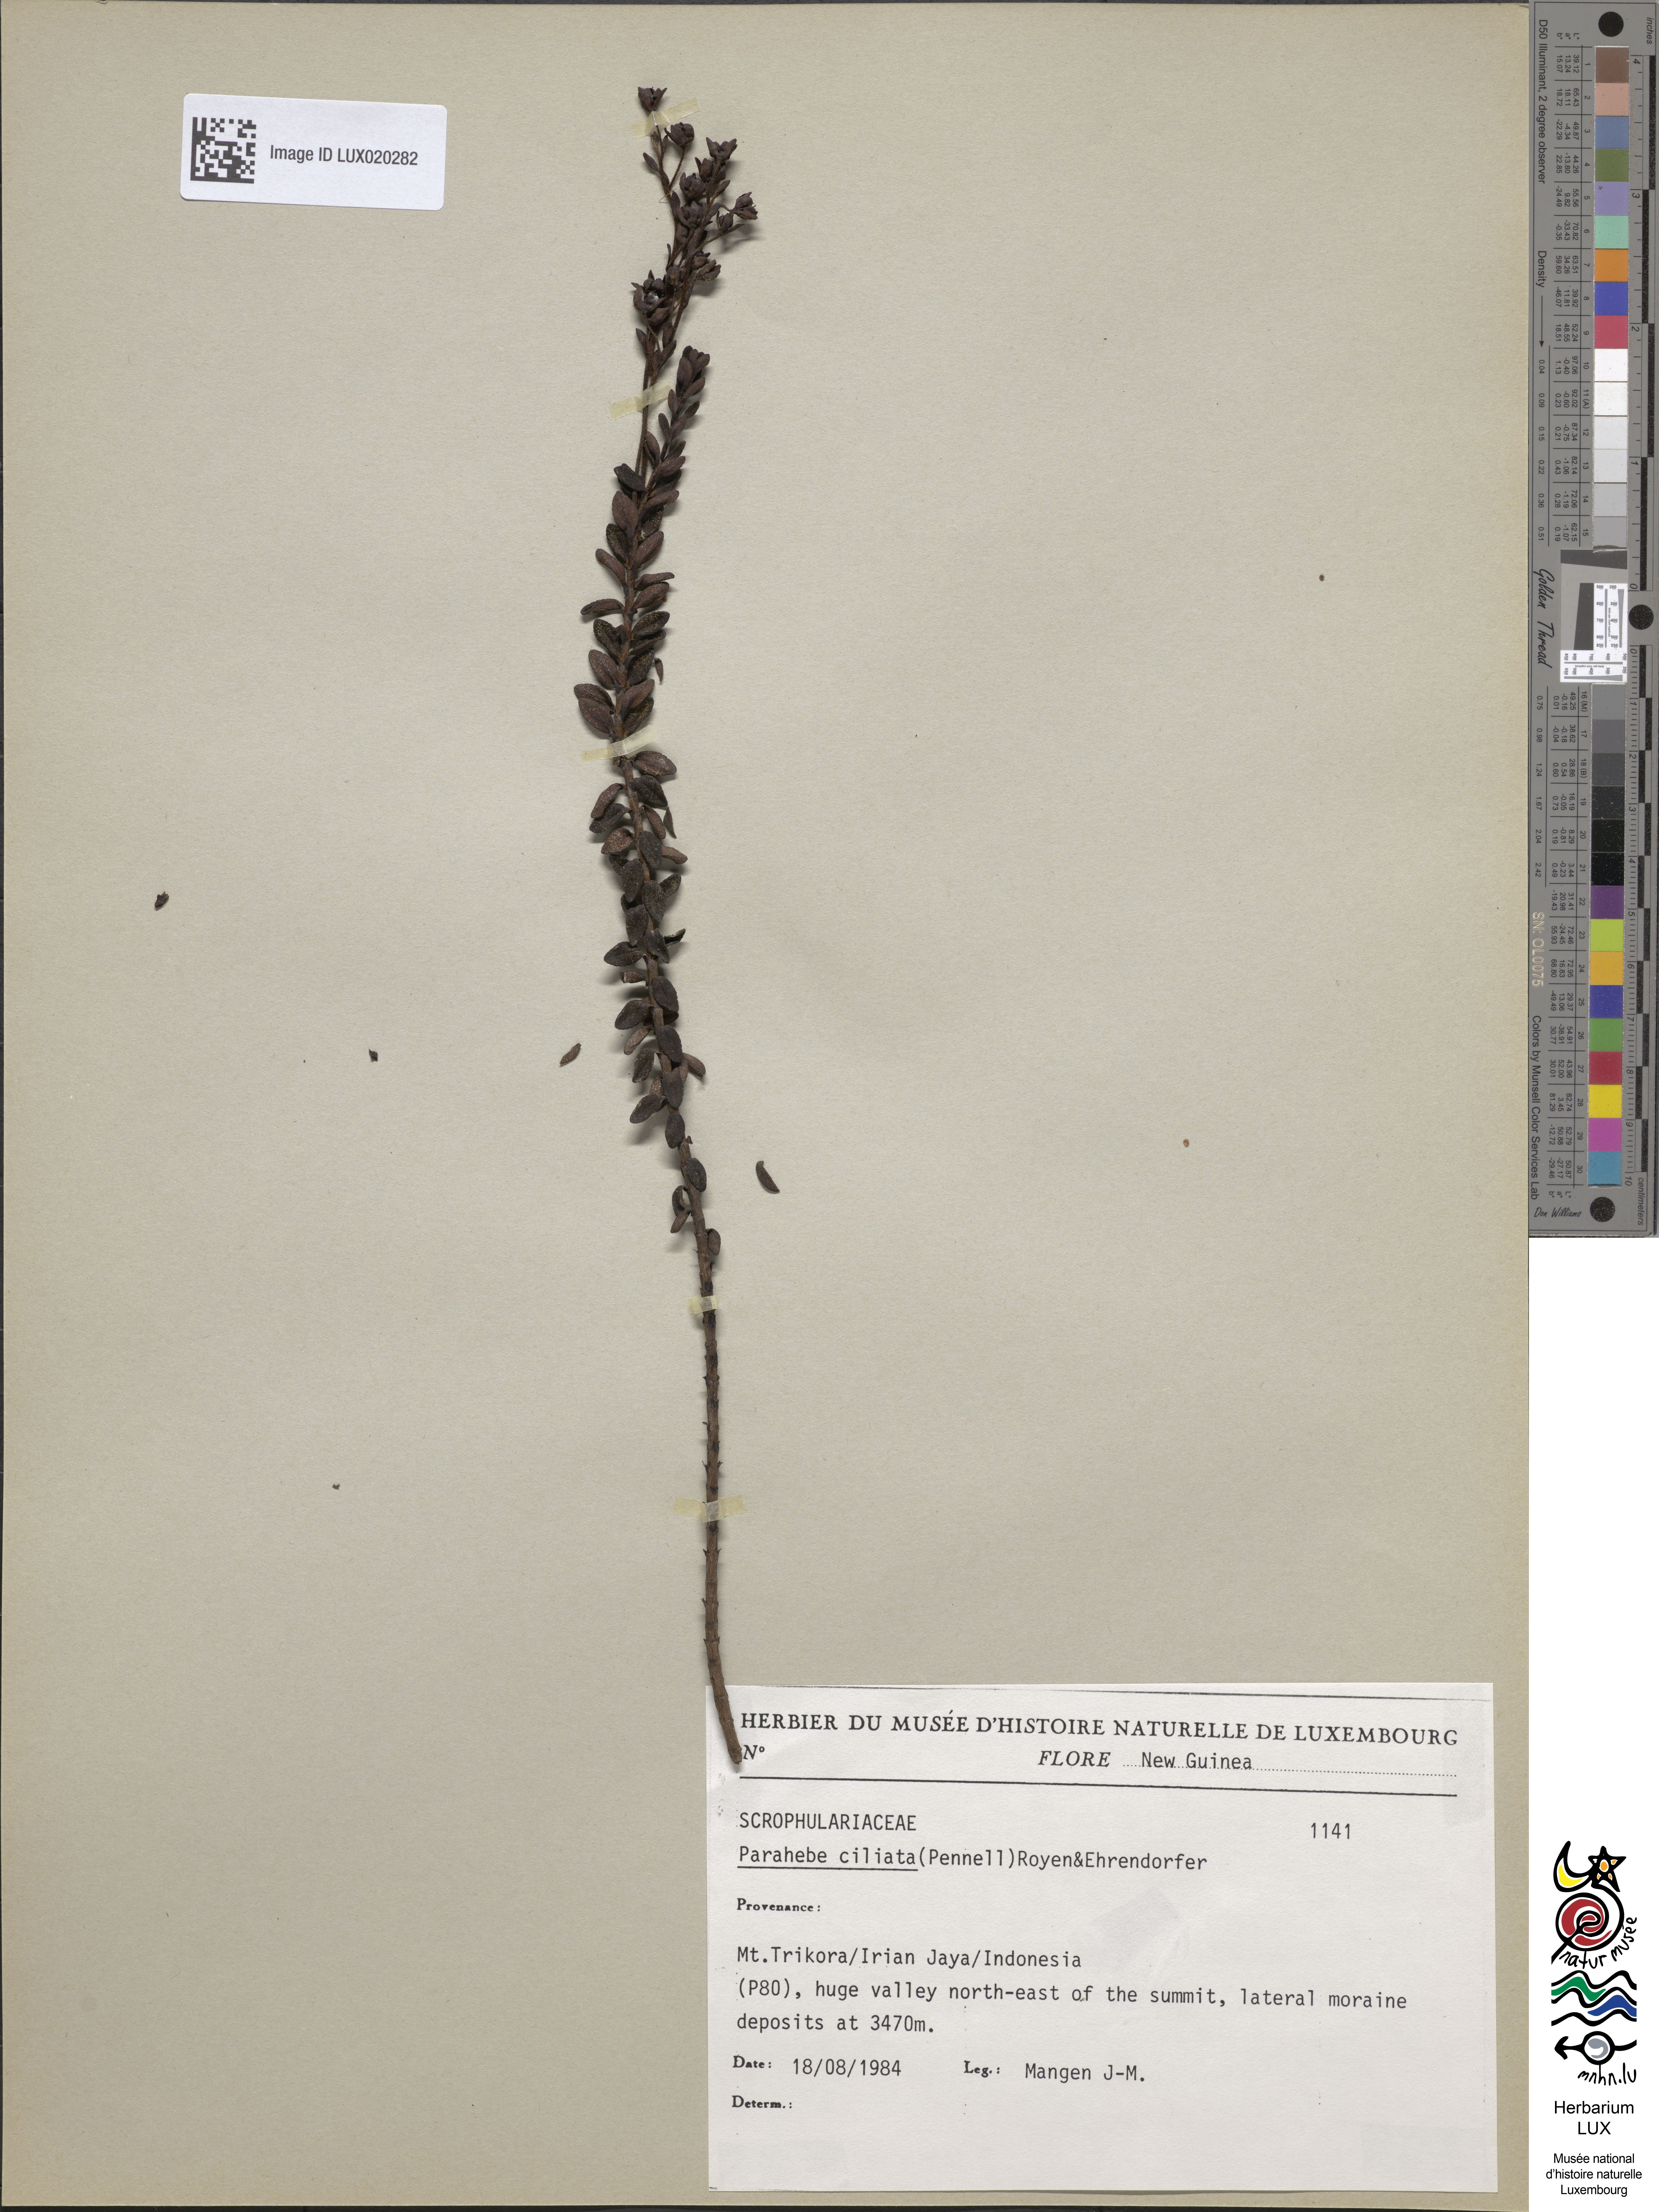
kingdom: Plantae
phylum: Tracheophyta
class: Magnoliopsida
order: Lamiales
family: Plantaginaceae
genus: Veronica
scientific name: Veronica ionantha
